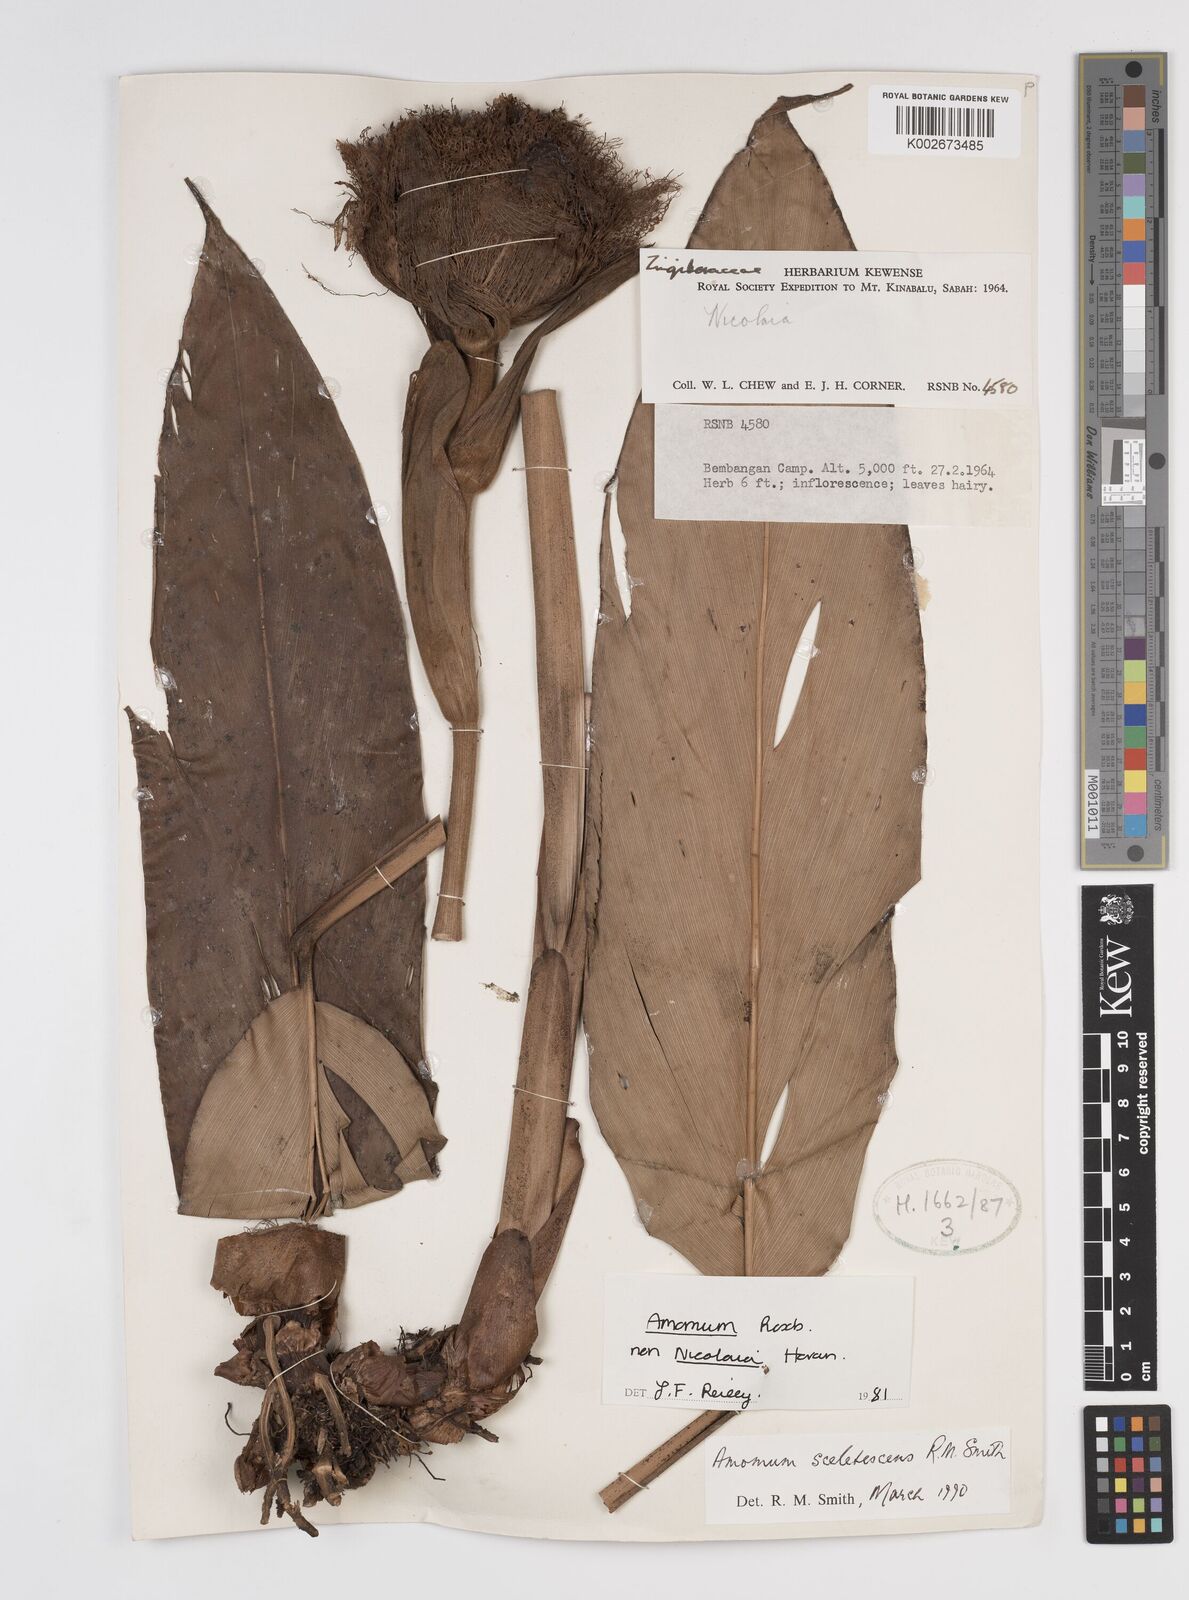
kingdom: Plantae
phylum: Tracheophyta
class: Liliopsida
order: Zingiberales
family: Zingiberaceae
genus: Meistera
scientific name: Meistera sceletescens
